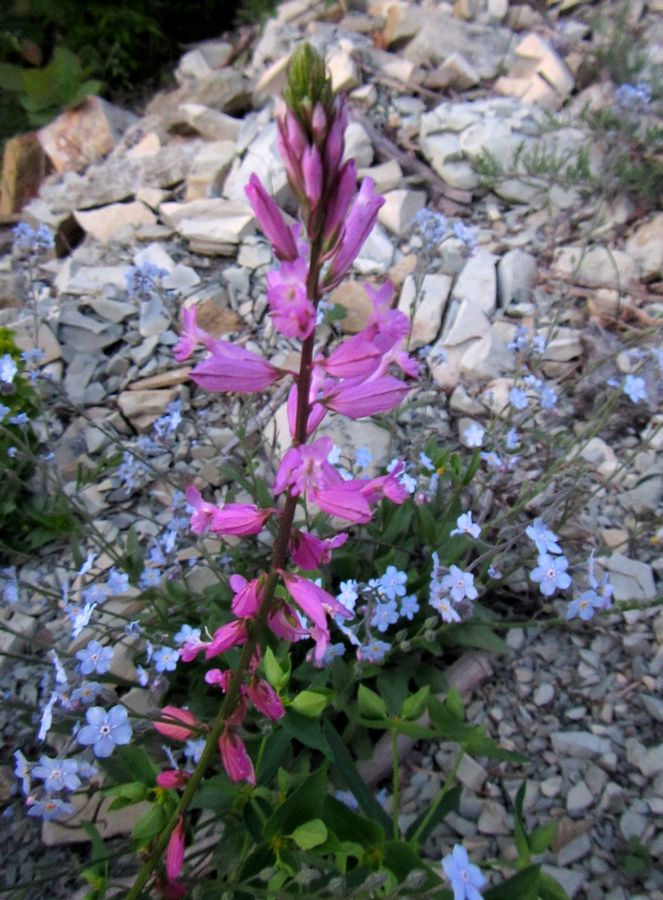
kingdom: Plantae
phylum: Tracheophyta
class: Magnoliopsida
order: Fabales
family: Polygalaceae
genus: Polygala
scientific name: Polygala major
